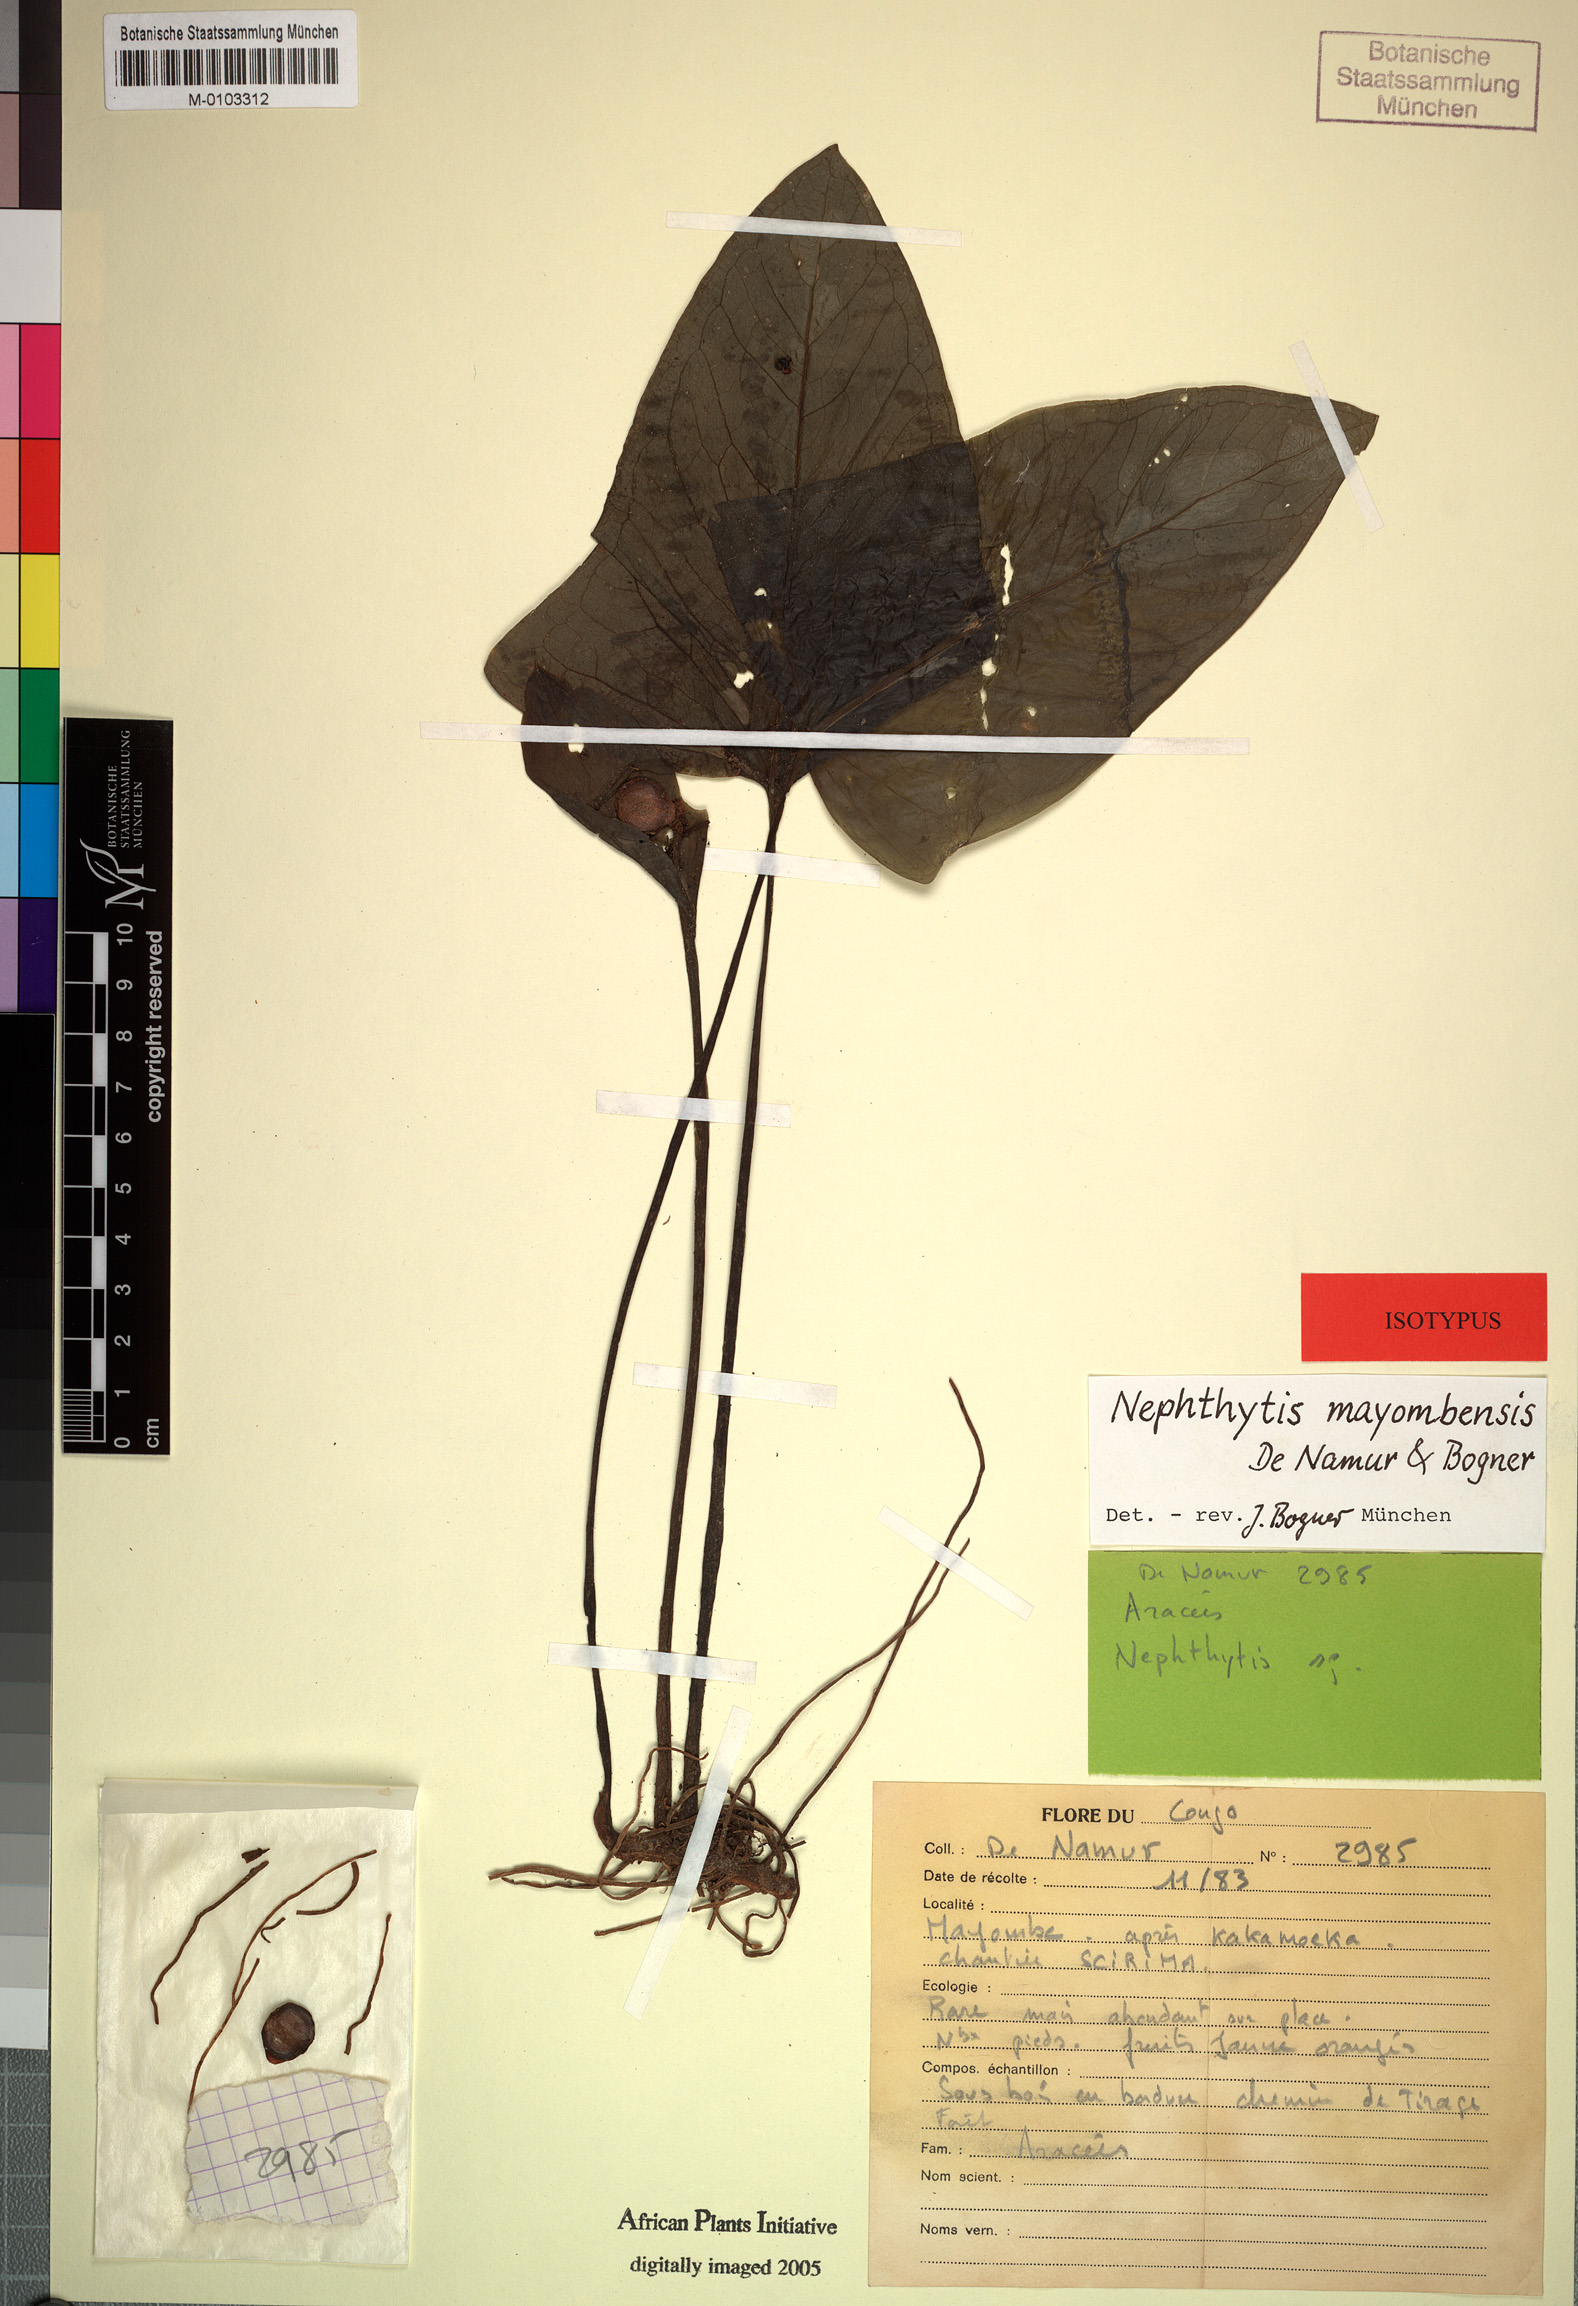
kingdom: Plantae
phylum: Tracheophyta
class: Liliopsida
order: Alismatales
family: Araceae
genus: Nephthytis
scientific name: Nephthytis mayombensis
